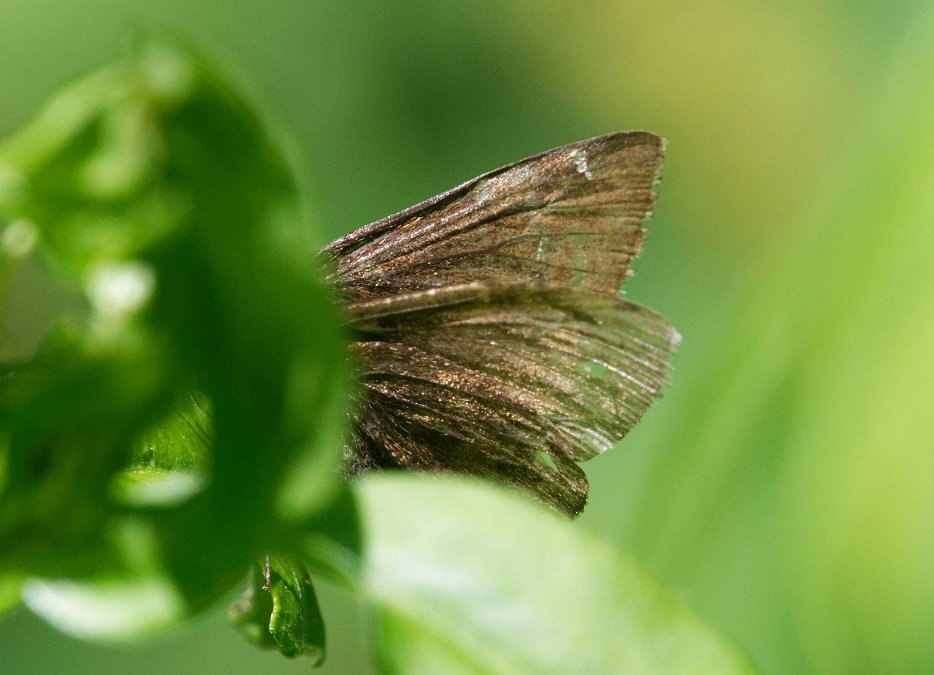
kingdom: Animalia
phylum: Arthropoda
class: Insecta
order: Lepidoptera
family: Hesperiidae
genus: Autochton
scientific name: Autochton
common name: Northern Cloudywing
